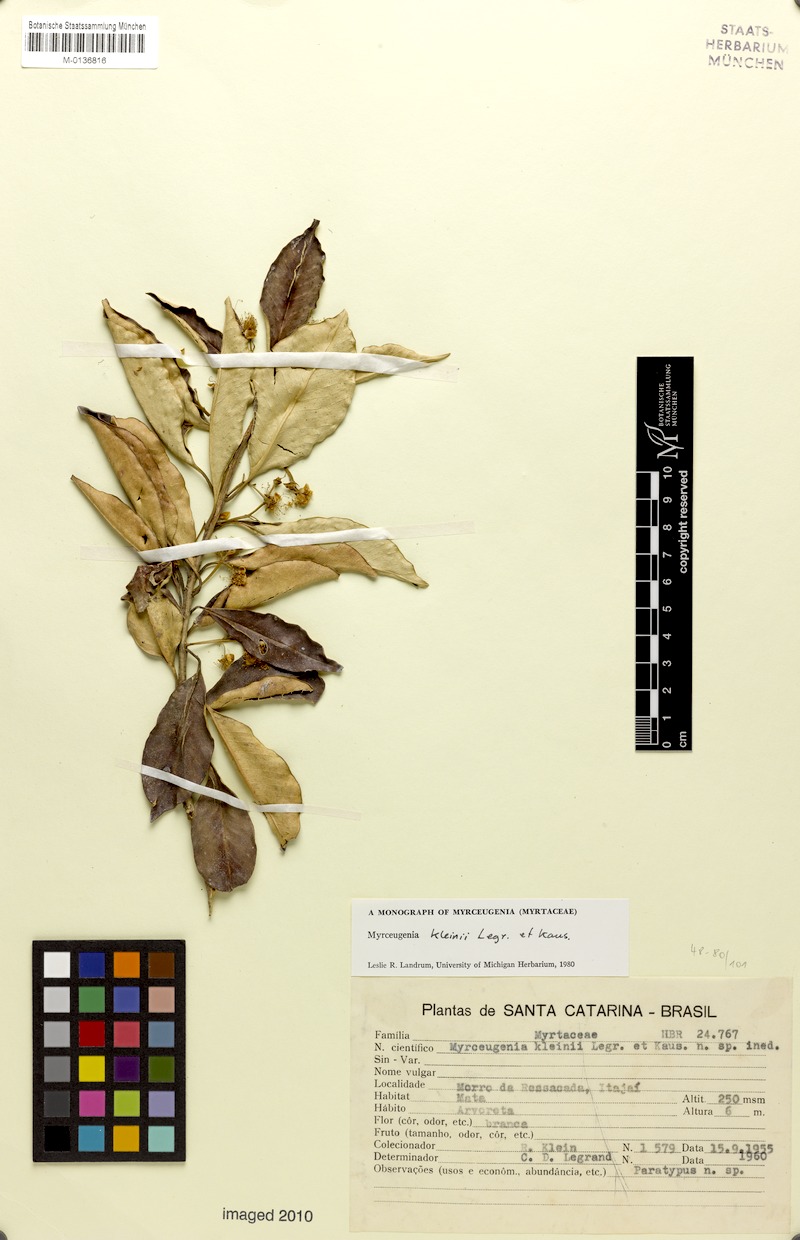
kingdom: Plantae
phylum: Tracheophyta
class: Magnoliopsida
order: Myrtales
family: Myrtaceae
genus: Myrceugenia
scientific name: Myrceugenia kleinii
